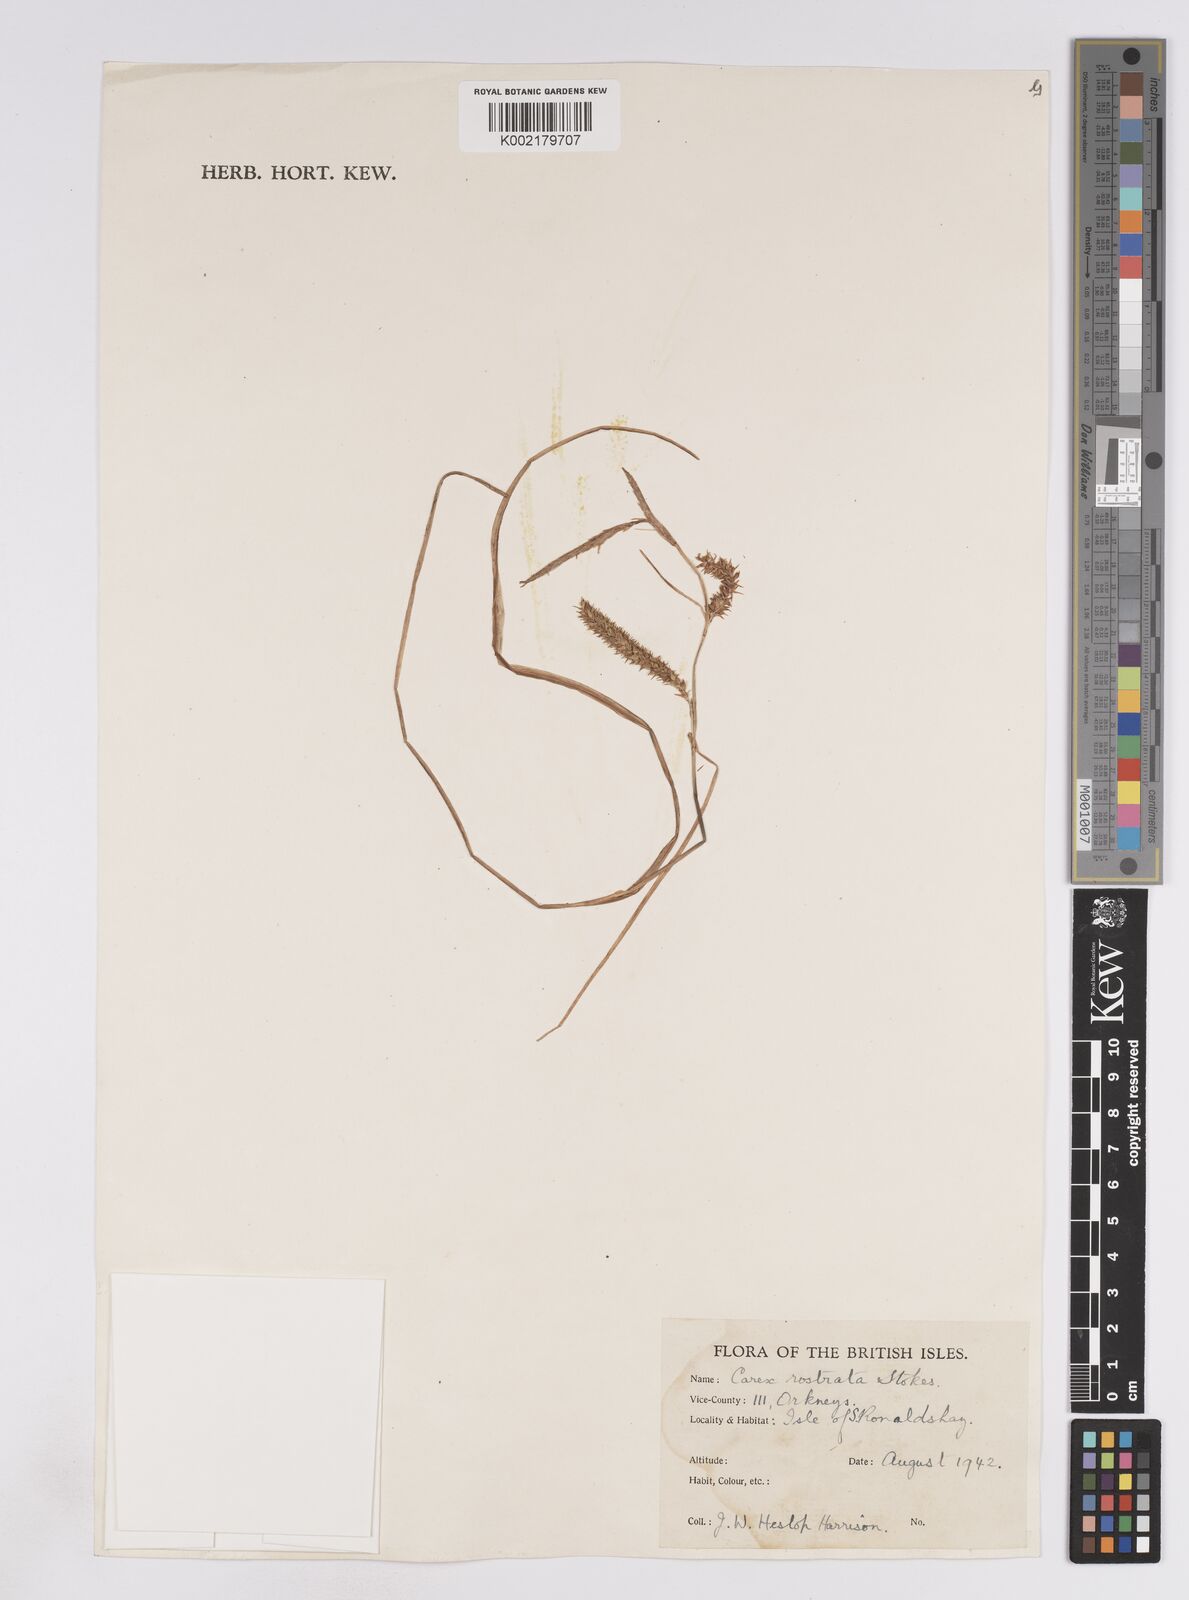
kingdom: Plantae
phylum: Tracheophyta
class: Liliopsida
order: Poales
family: Cyperaceae
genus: Carex
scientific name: Carex rostrata
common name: Bottle sedge
